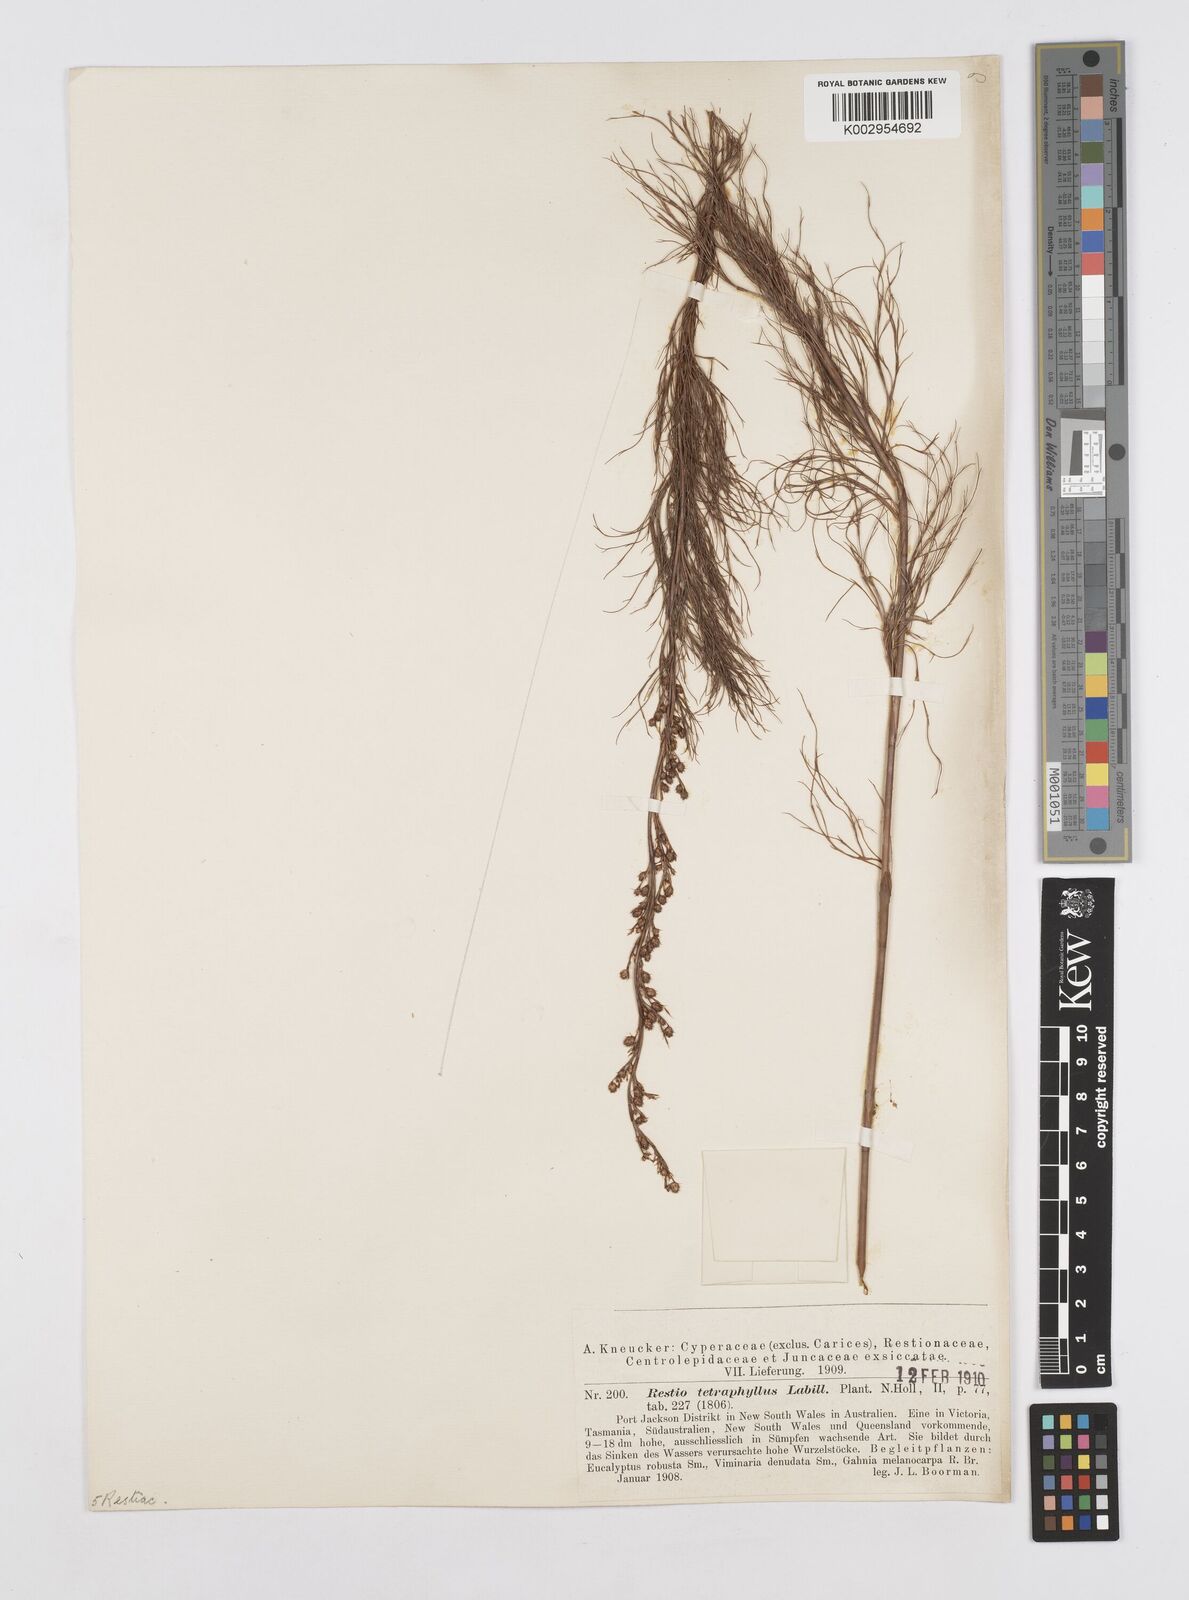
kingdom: Plantae
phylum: Tracheophyta
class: Liliopsida
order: Poales
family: Restionaceae
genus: Baloskion
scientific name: Baloskion tetraphyllum
